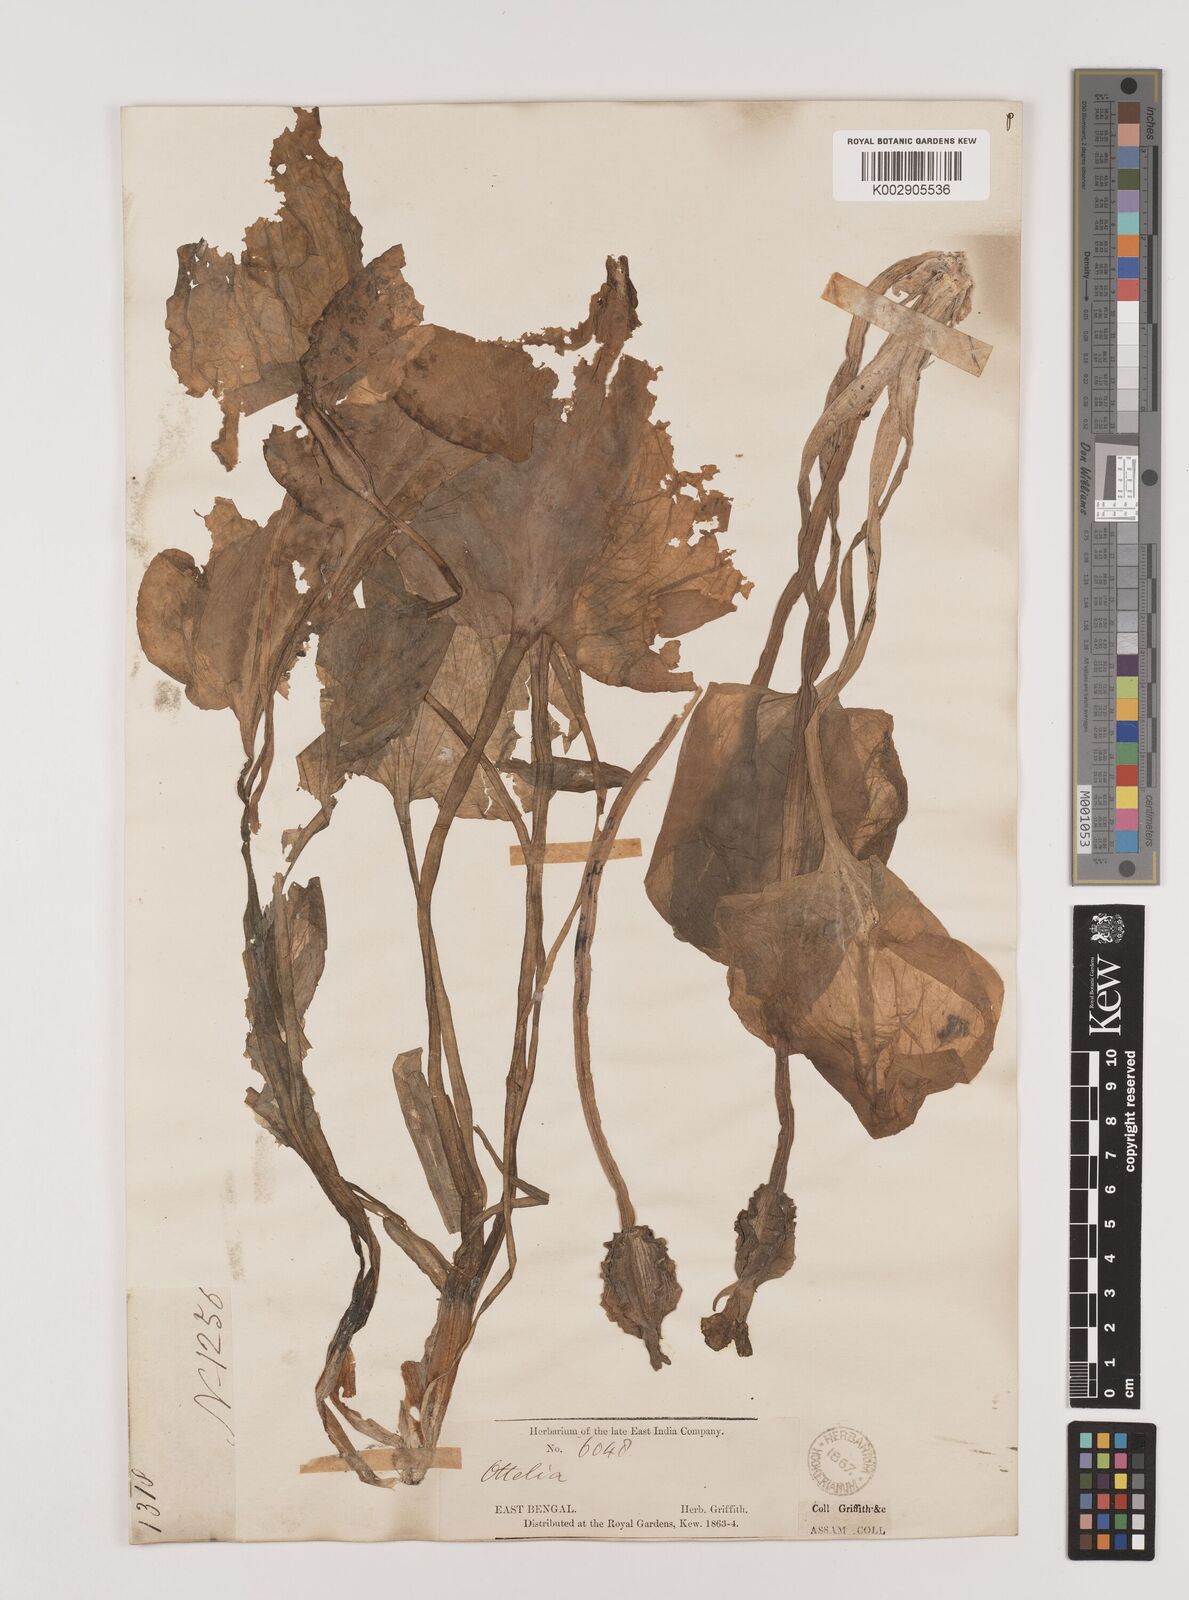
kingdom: Plantae
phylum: Tracheophyta
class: Liliopsida
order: Alismatales
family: Hydrocharitaceae
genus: Ottelia
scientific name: Ottelia alismoides
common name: Duck-lettuce
